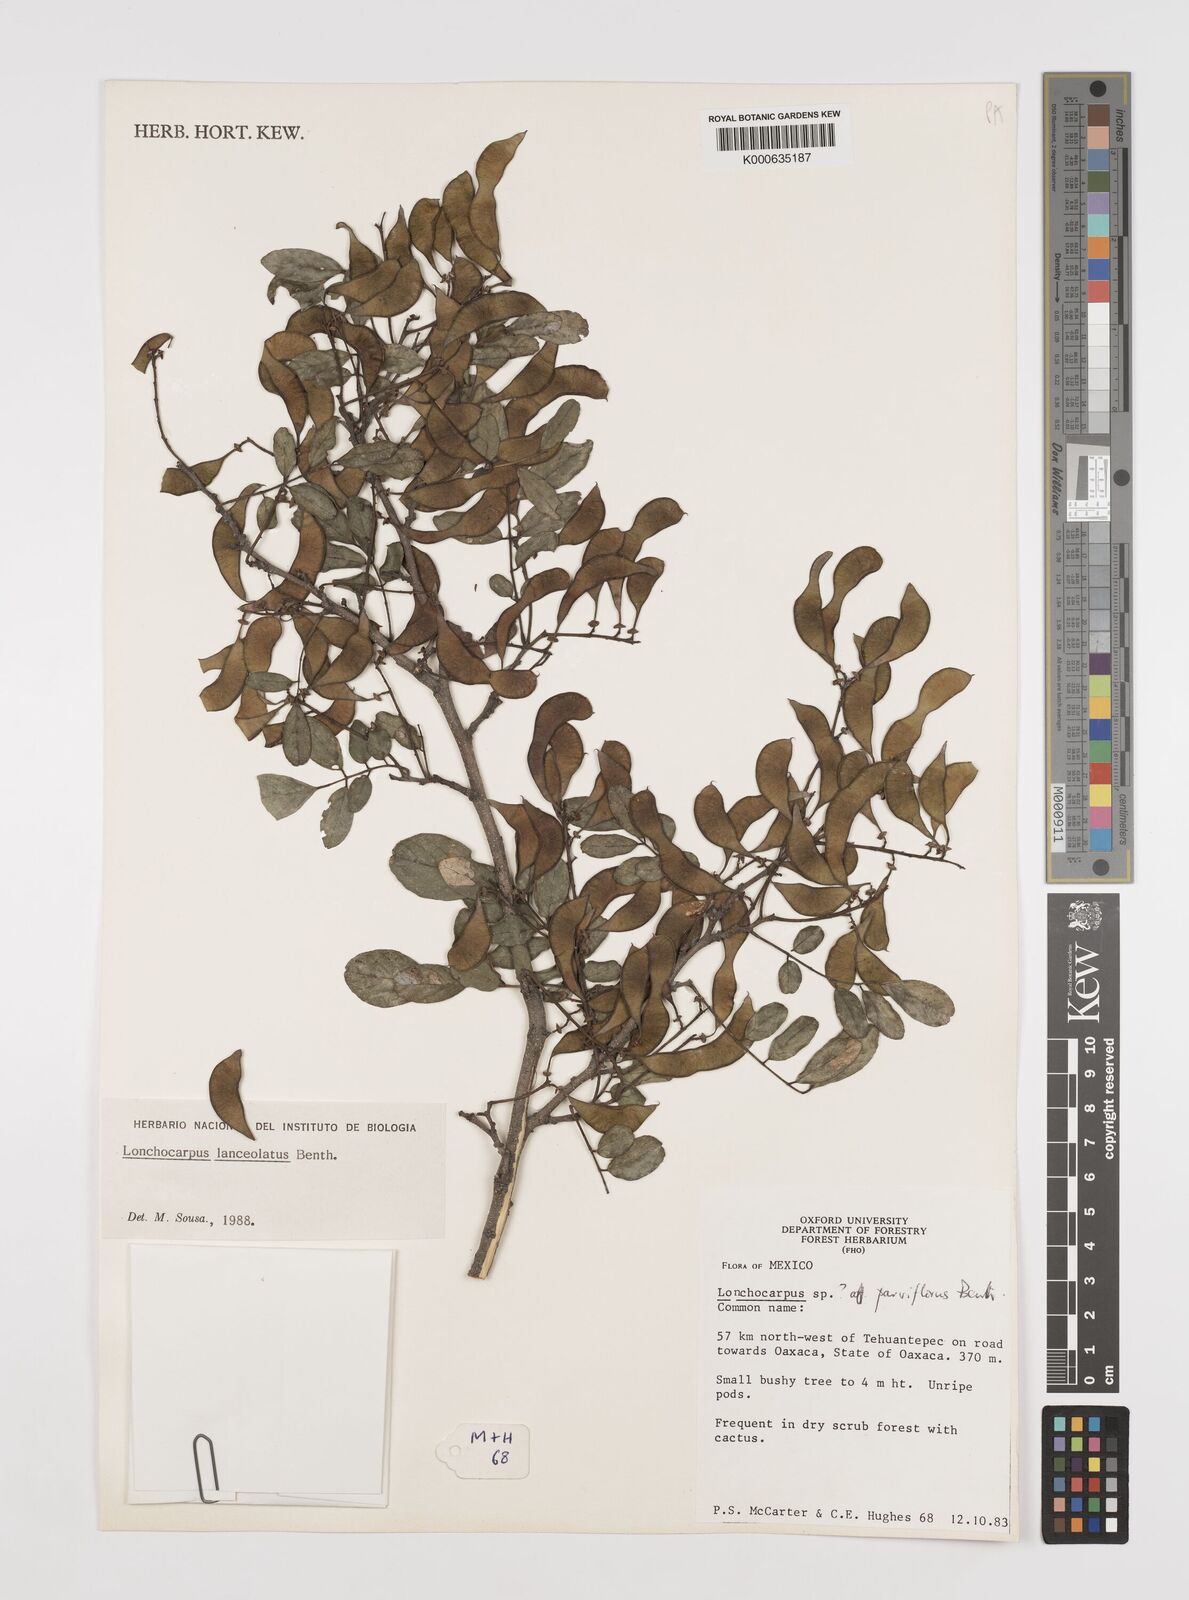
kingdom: Plantae
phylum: Tracheophyta
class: Magnoliopsida
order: Fabales
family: Fabaceae
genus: Lonchocarpus
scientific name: Lonchocarpus lanceolatus
